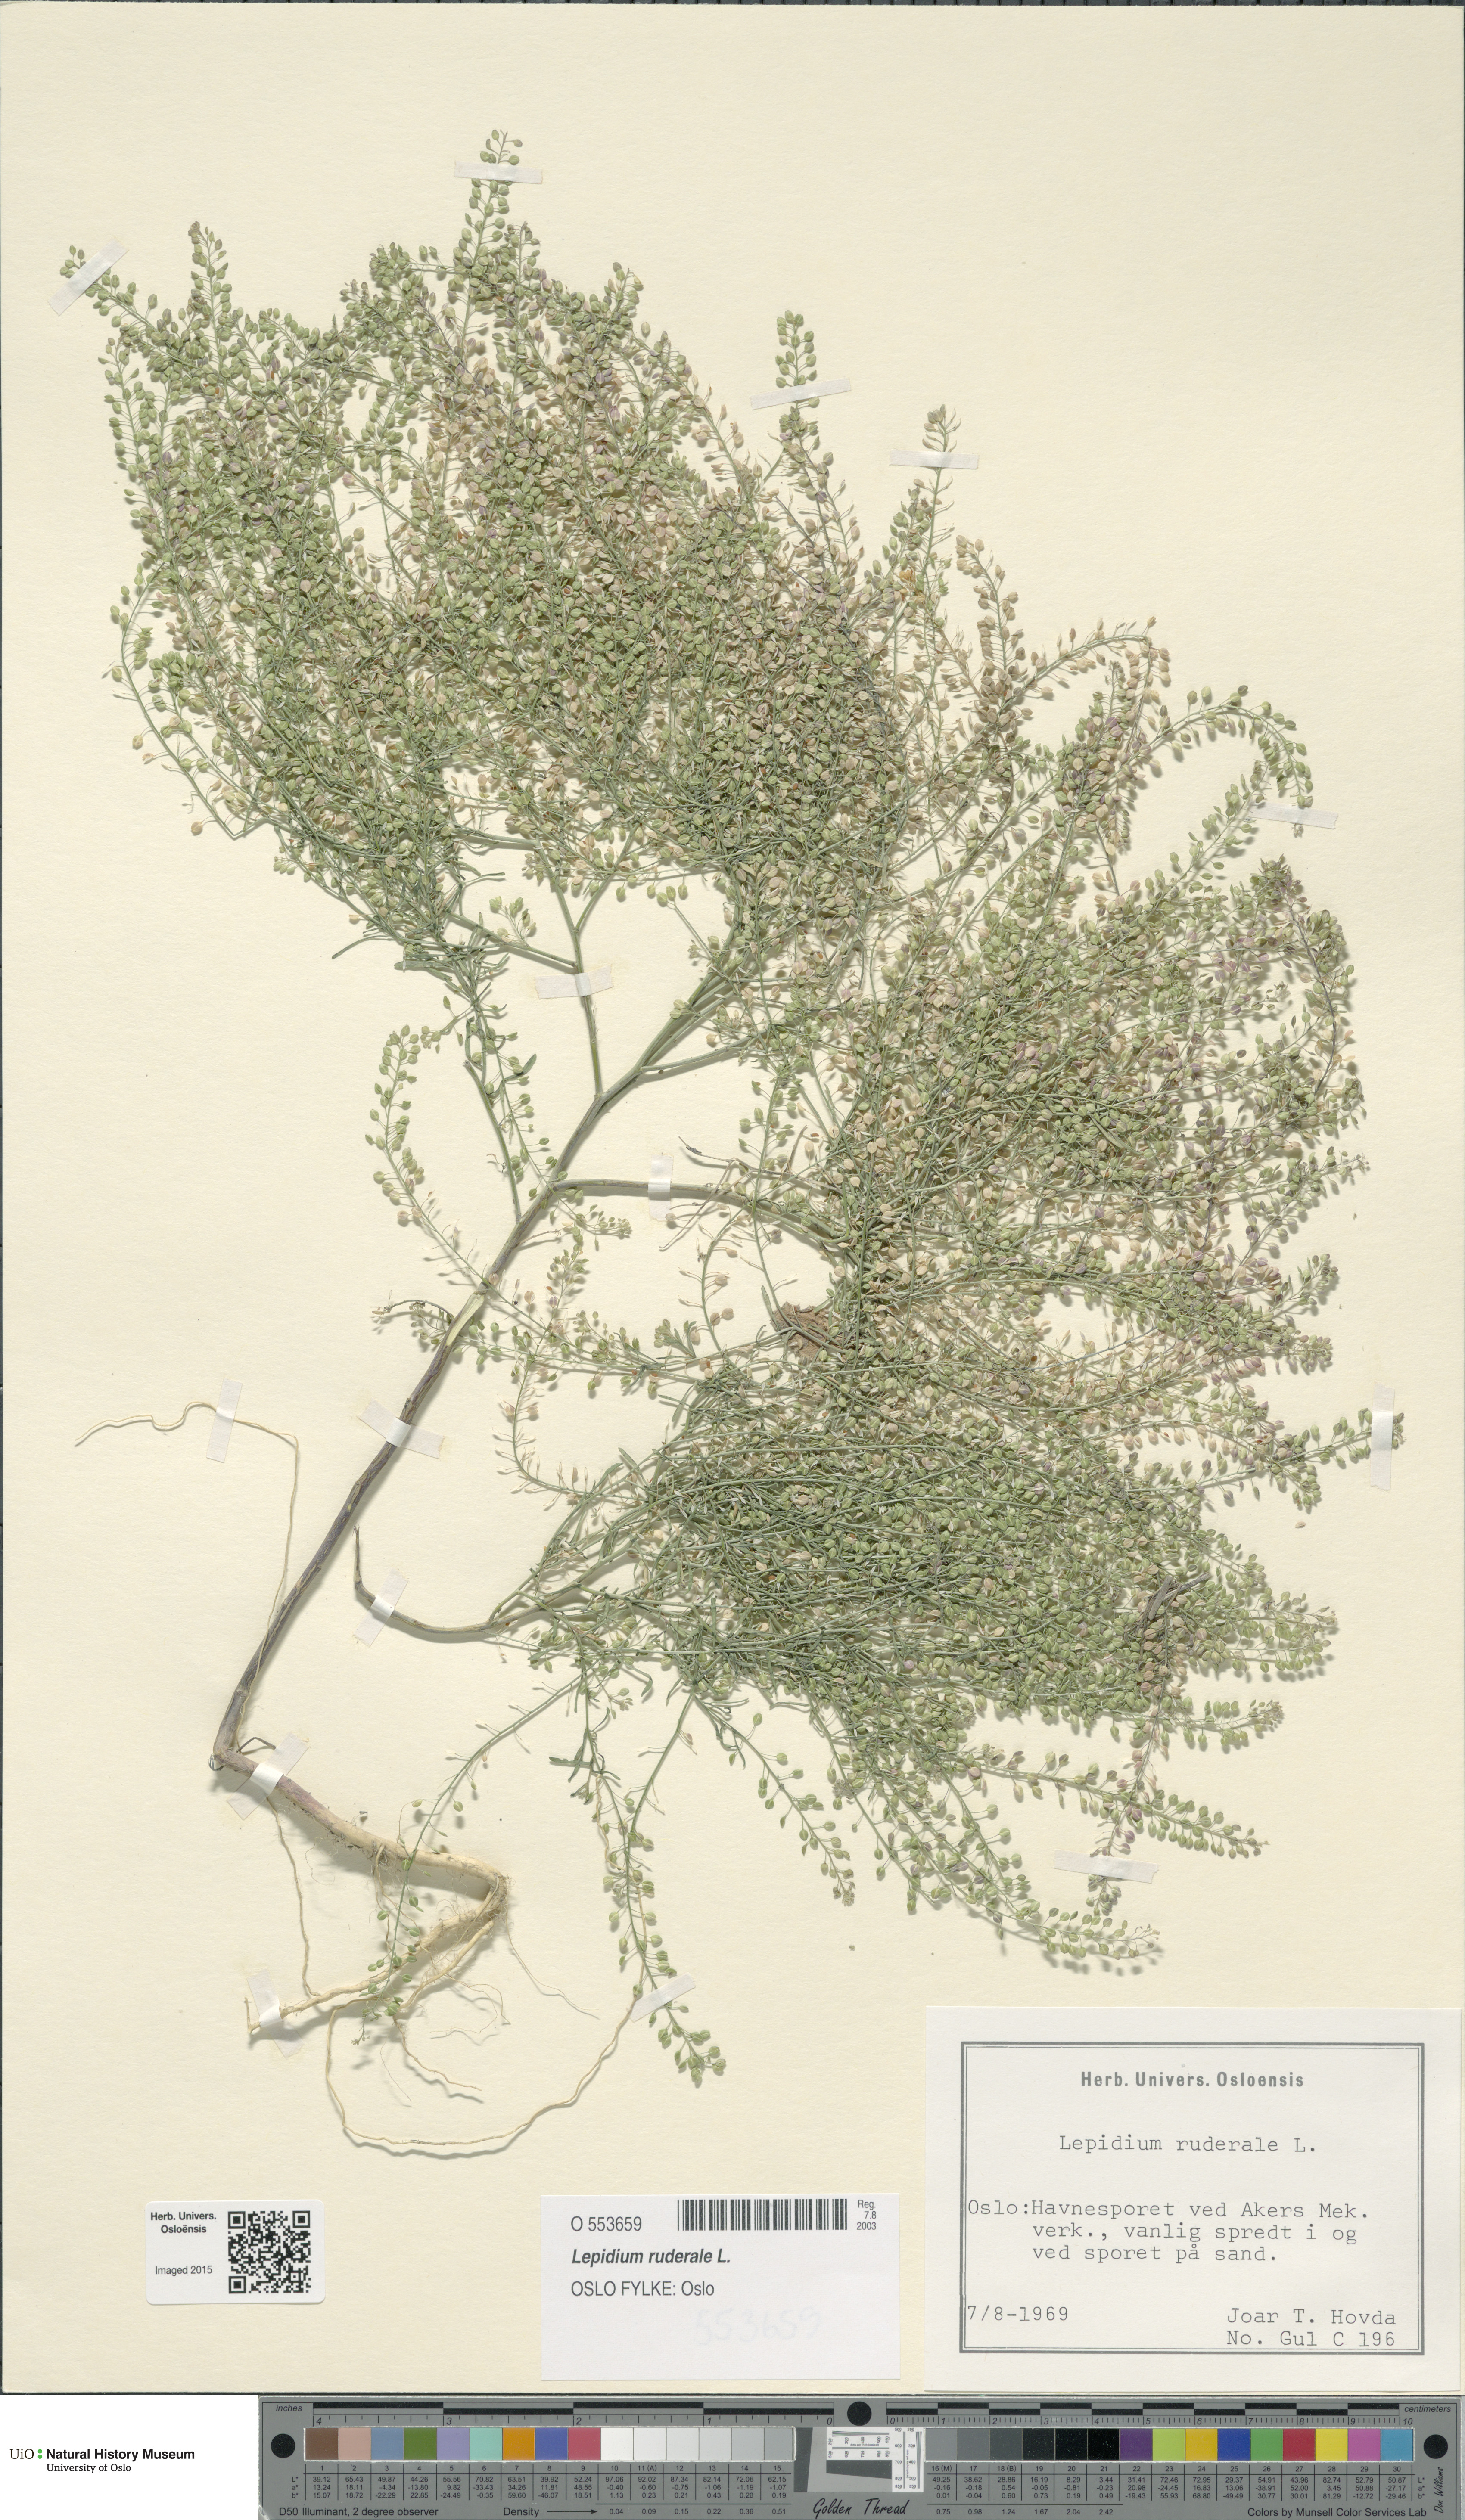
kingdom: Plantae
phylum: Tracheophyta
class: Magnoliopsida
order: Brassicales
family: Brassicaceae
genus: Lepidium
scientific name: Lepidium ruderale
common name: Narrow-leaved pepperwort
